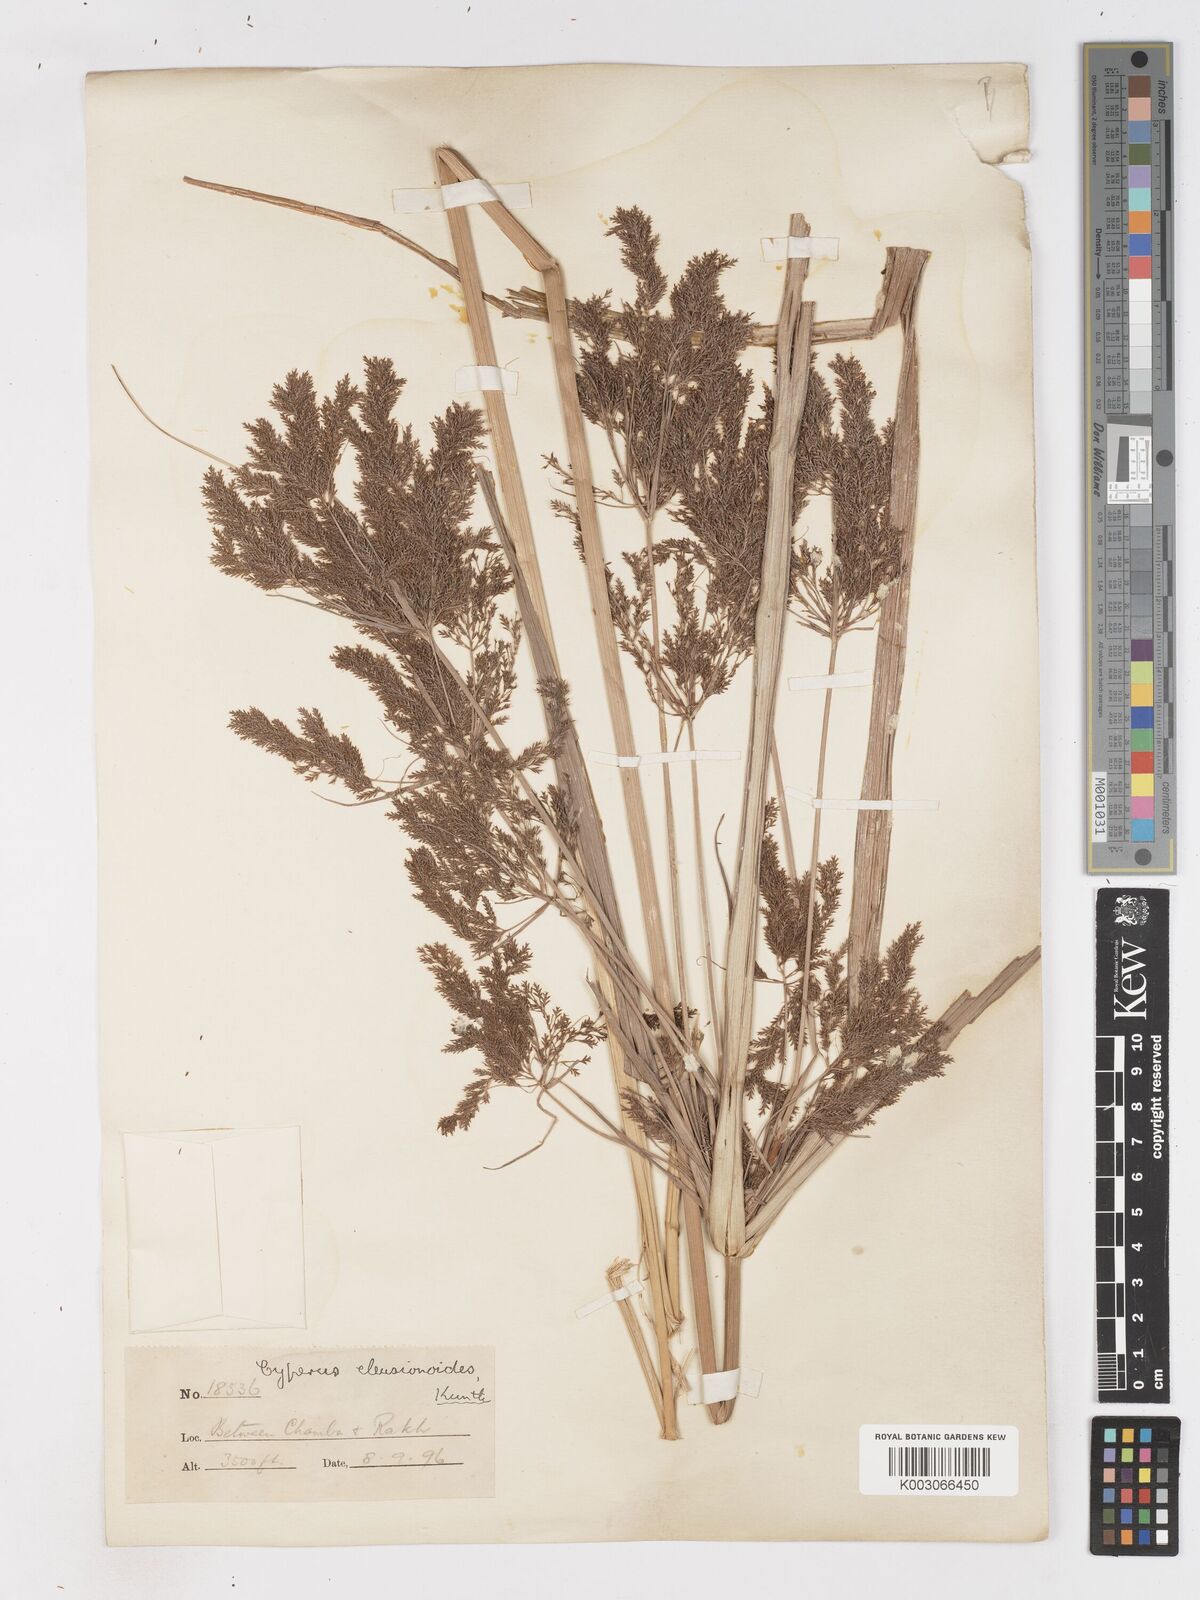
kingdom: Plantae
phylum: Tracheophyta
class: Liliopsida
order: Poales
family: Cyperaceae
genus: Cyperus
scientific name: Cyperus nutans
